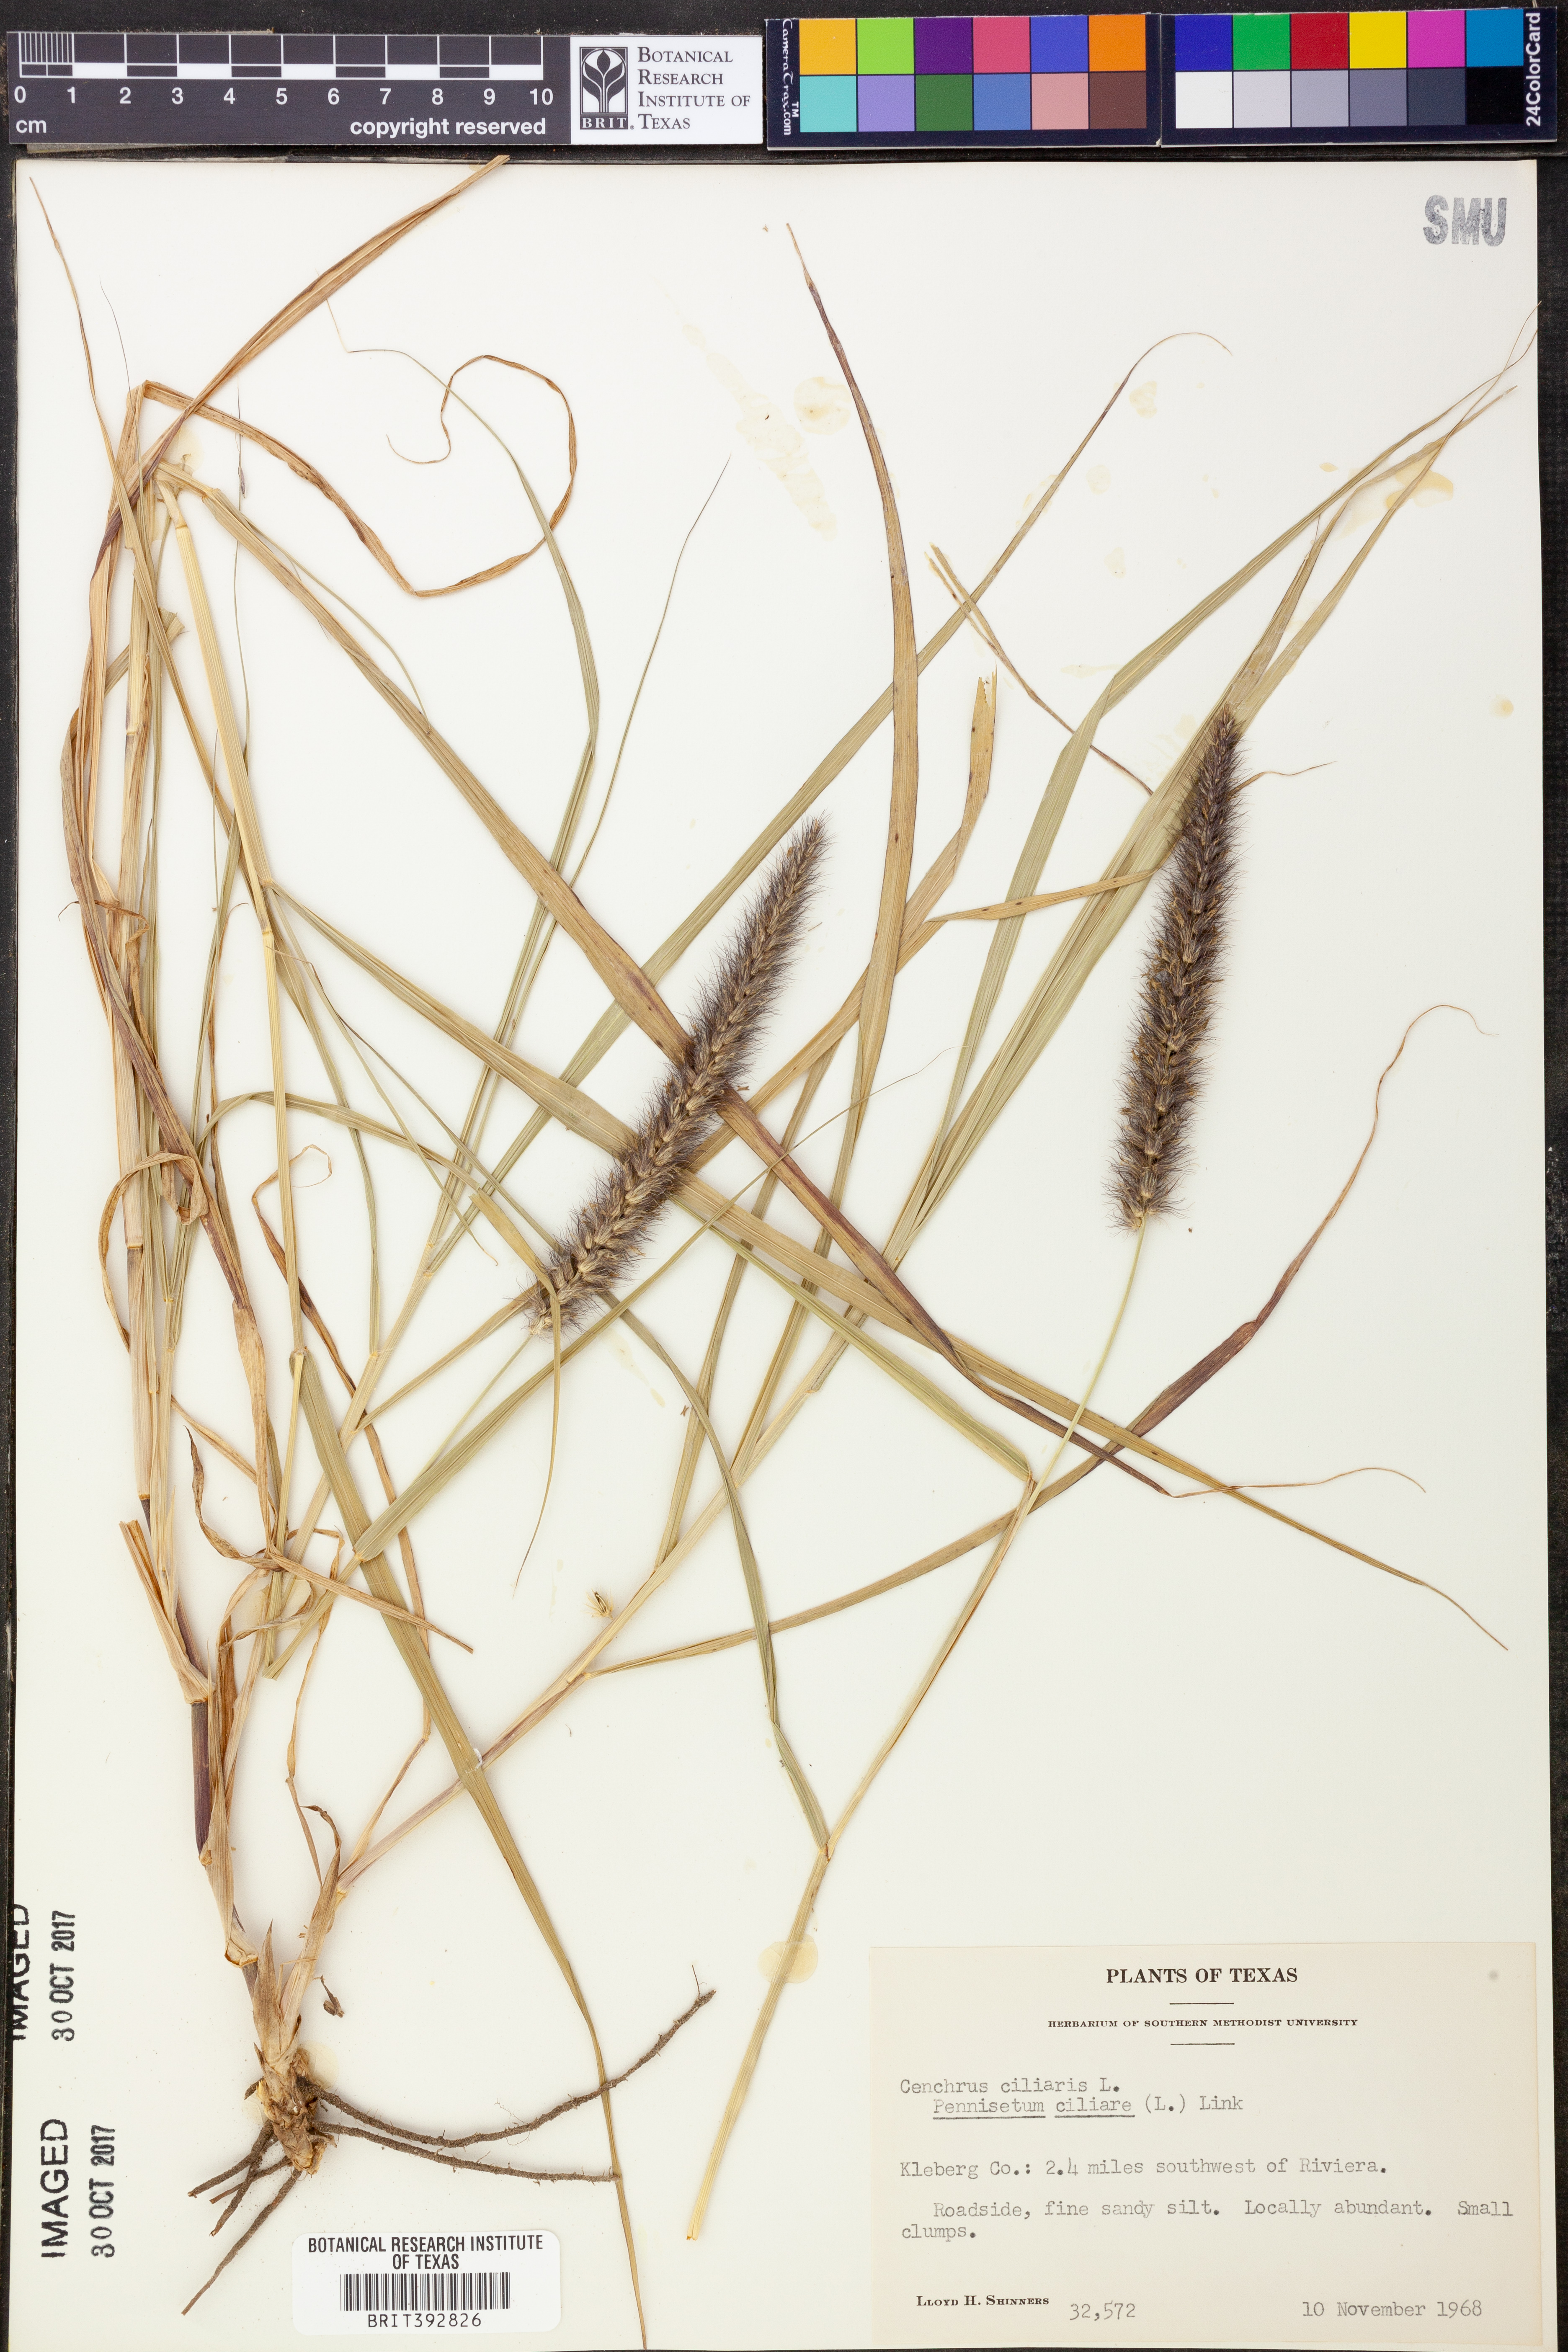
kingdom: Plantae
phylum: Tracheophyta
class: Liliopsida
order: Poales
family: Poaceae
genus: Cenchrus
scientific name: Cenchrus ciliaris
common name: Buffelgrass
